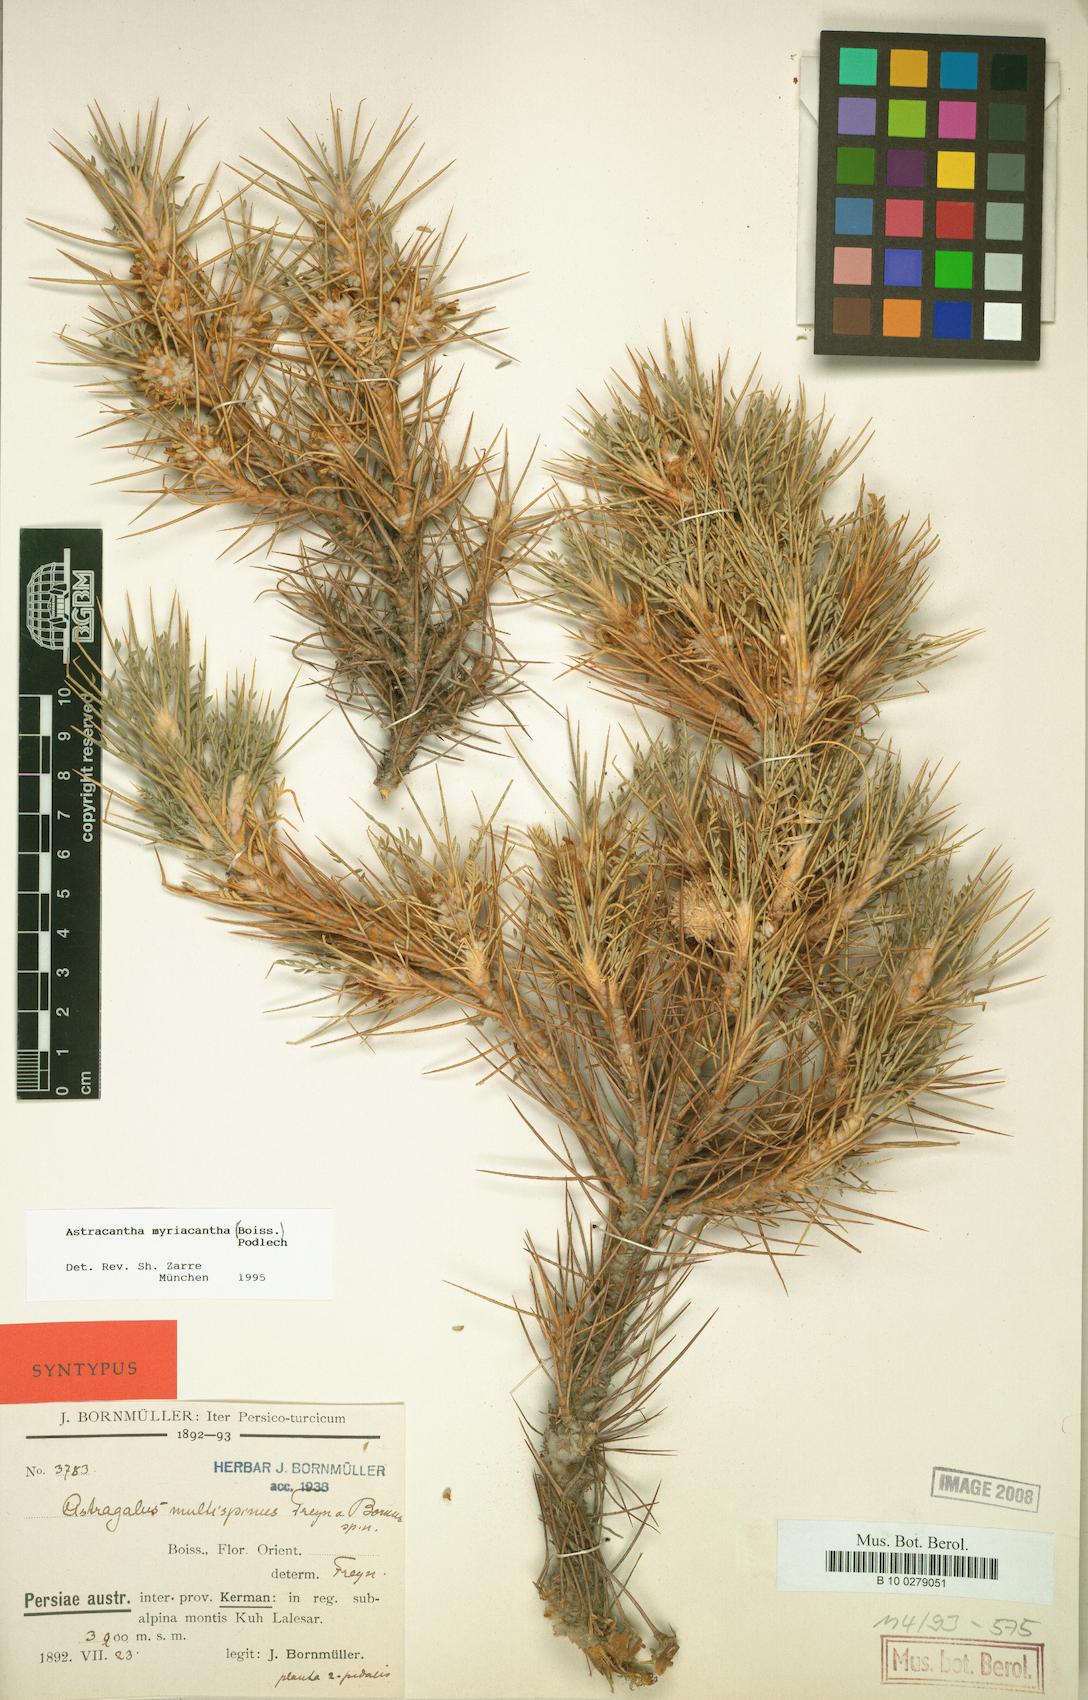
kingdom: Plantae
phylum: Tracheophyta
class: Magnoliopsida
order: Fabales
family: Fabaceae
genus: Astragalus
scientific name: Astragalus myriacanthus
